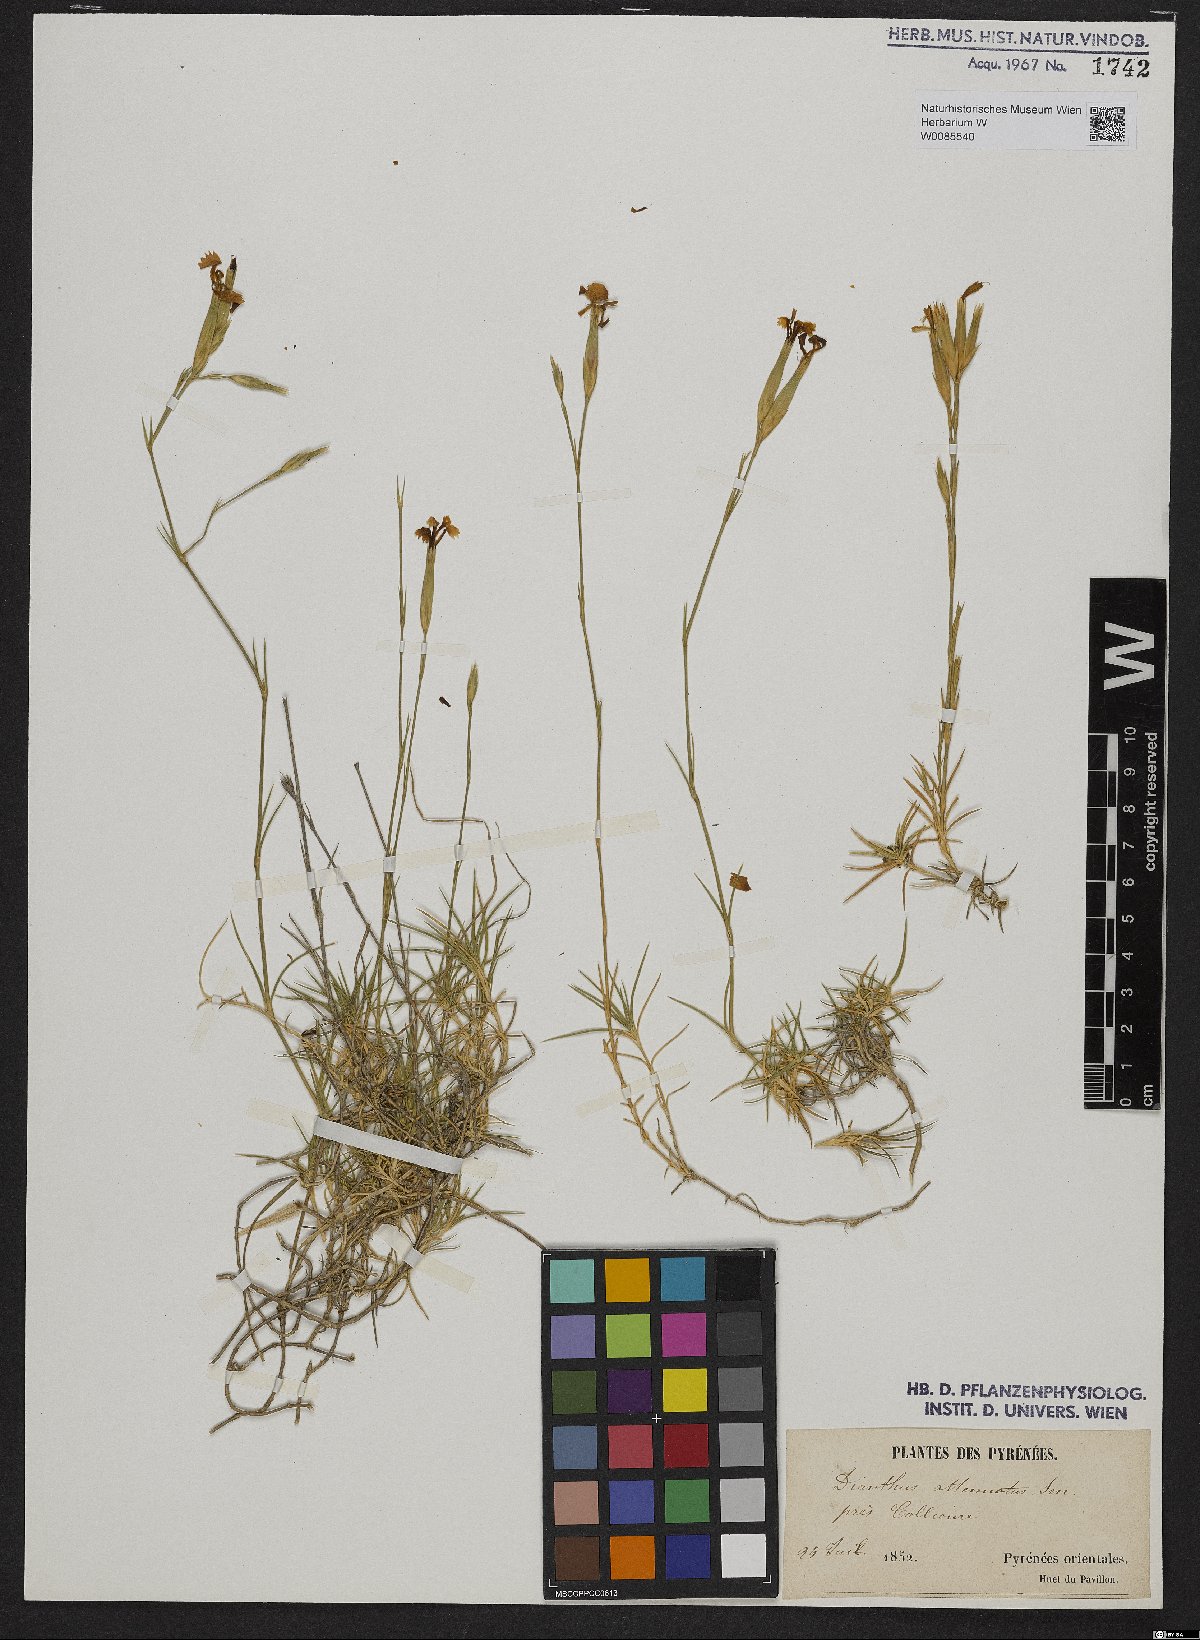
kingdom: Plantae
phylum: Tracheophyta
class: Magnoliopsida
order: Caryophyllales
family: Caryophyllaceae
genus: Dianthus
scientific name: Dianthus pyrenaicus
